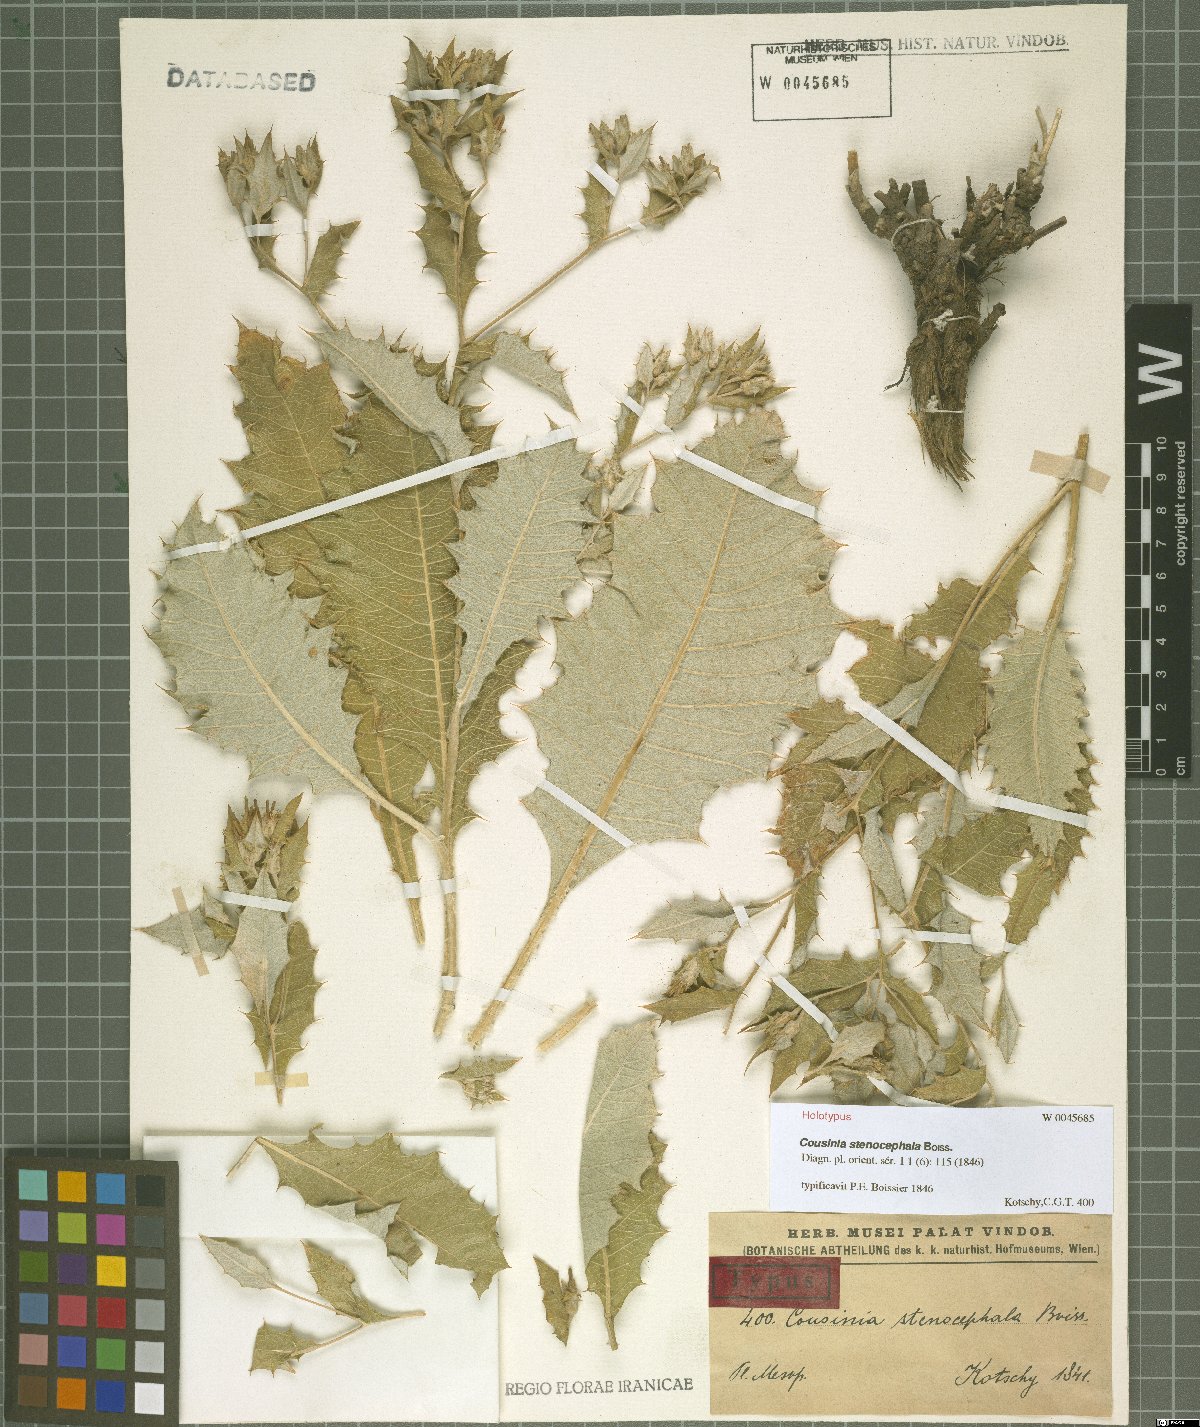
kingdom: Plantae
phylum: Tracheophyta
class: Magnoliopsida
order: Asterales
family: Asteraceae
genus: Cousinia
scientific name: Cousinia stenocephala
